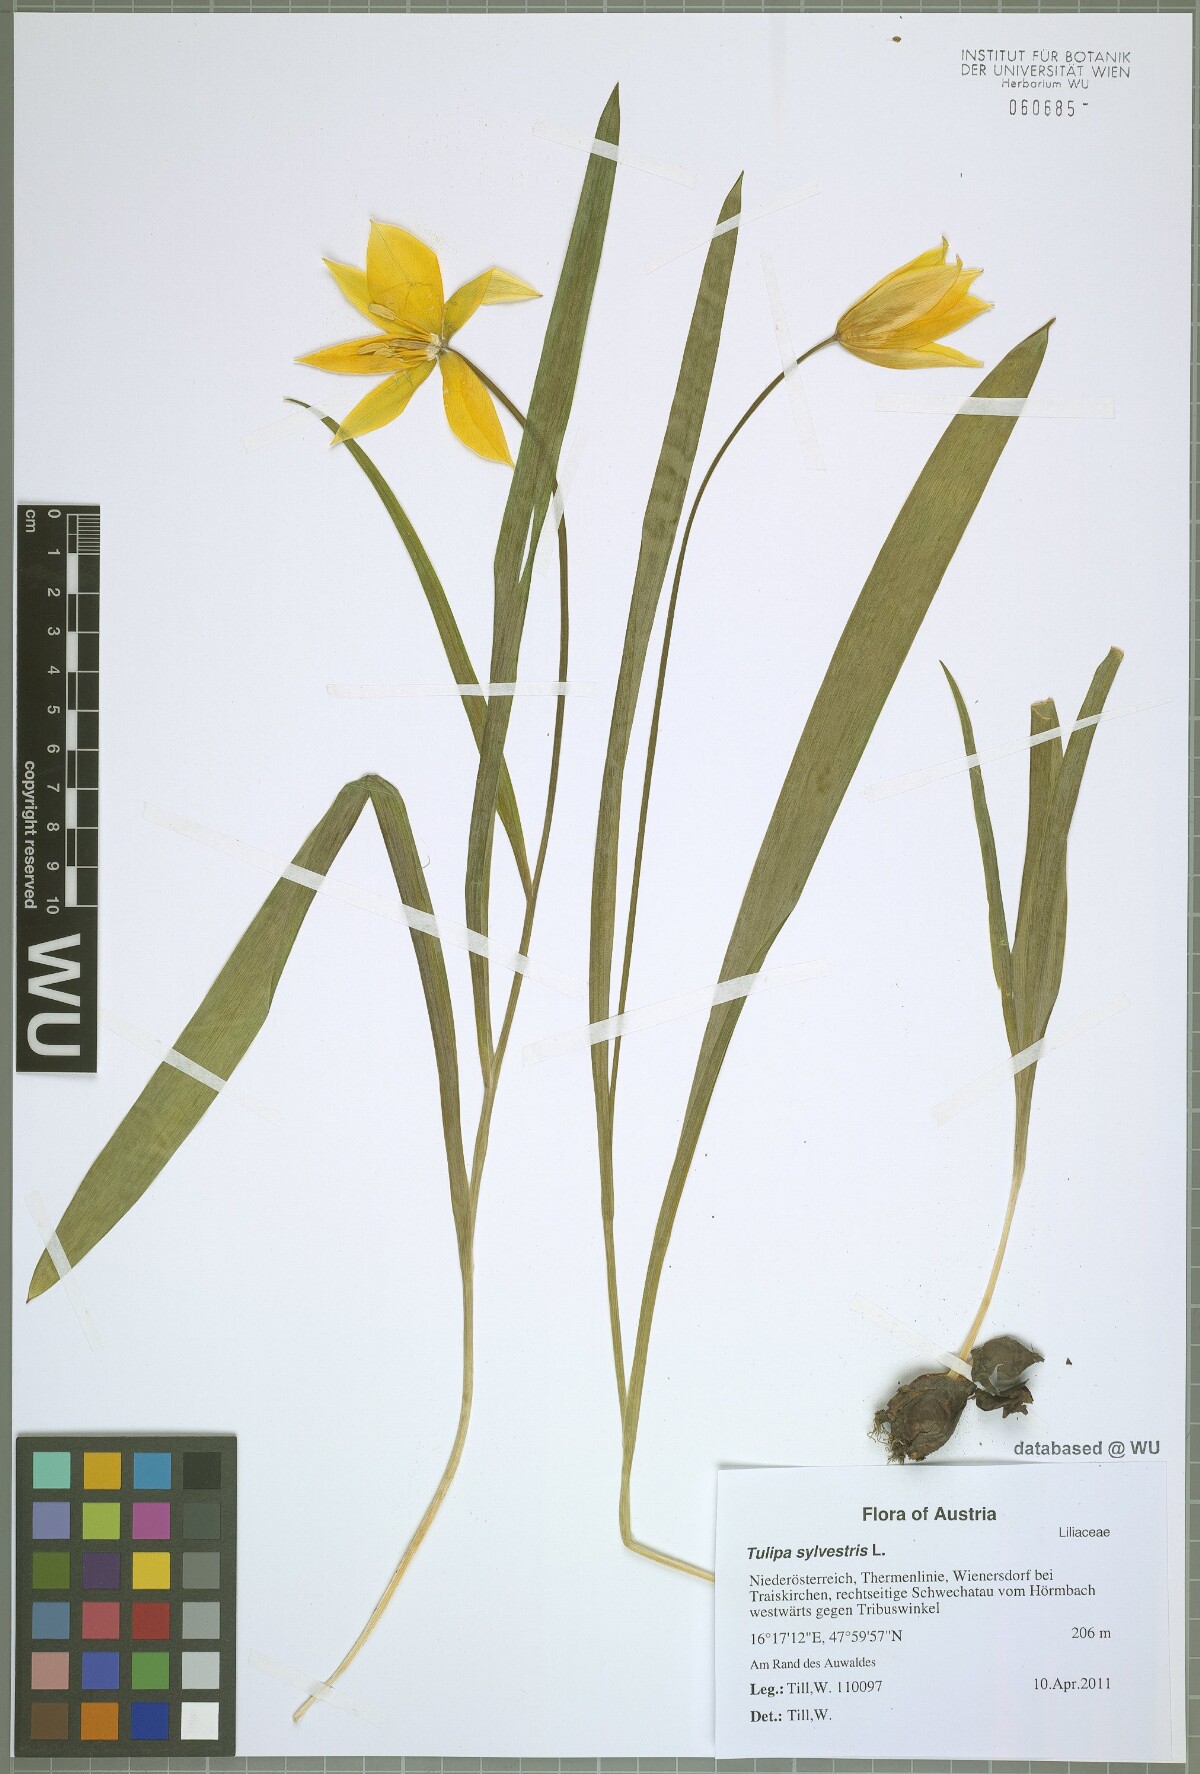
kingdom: Plantae
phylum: Tracheophyta
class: Liliopsida
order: Liliales
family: Liliaceae
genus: Tulipa
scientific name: Tulipa sylvestris
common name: Wild tulip
